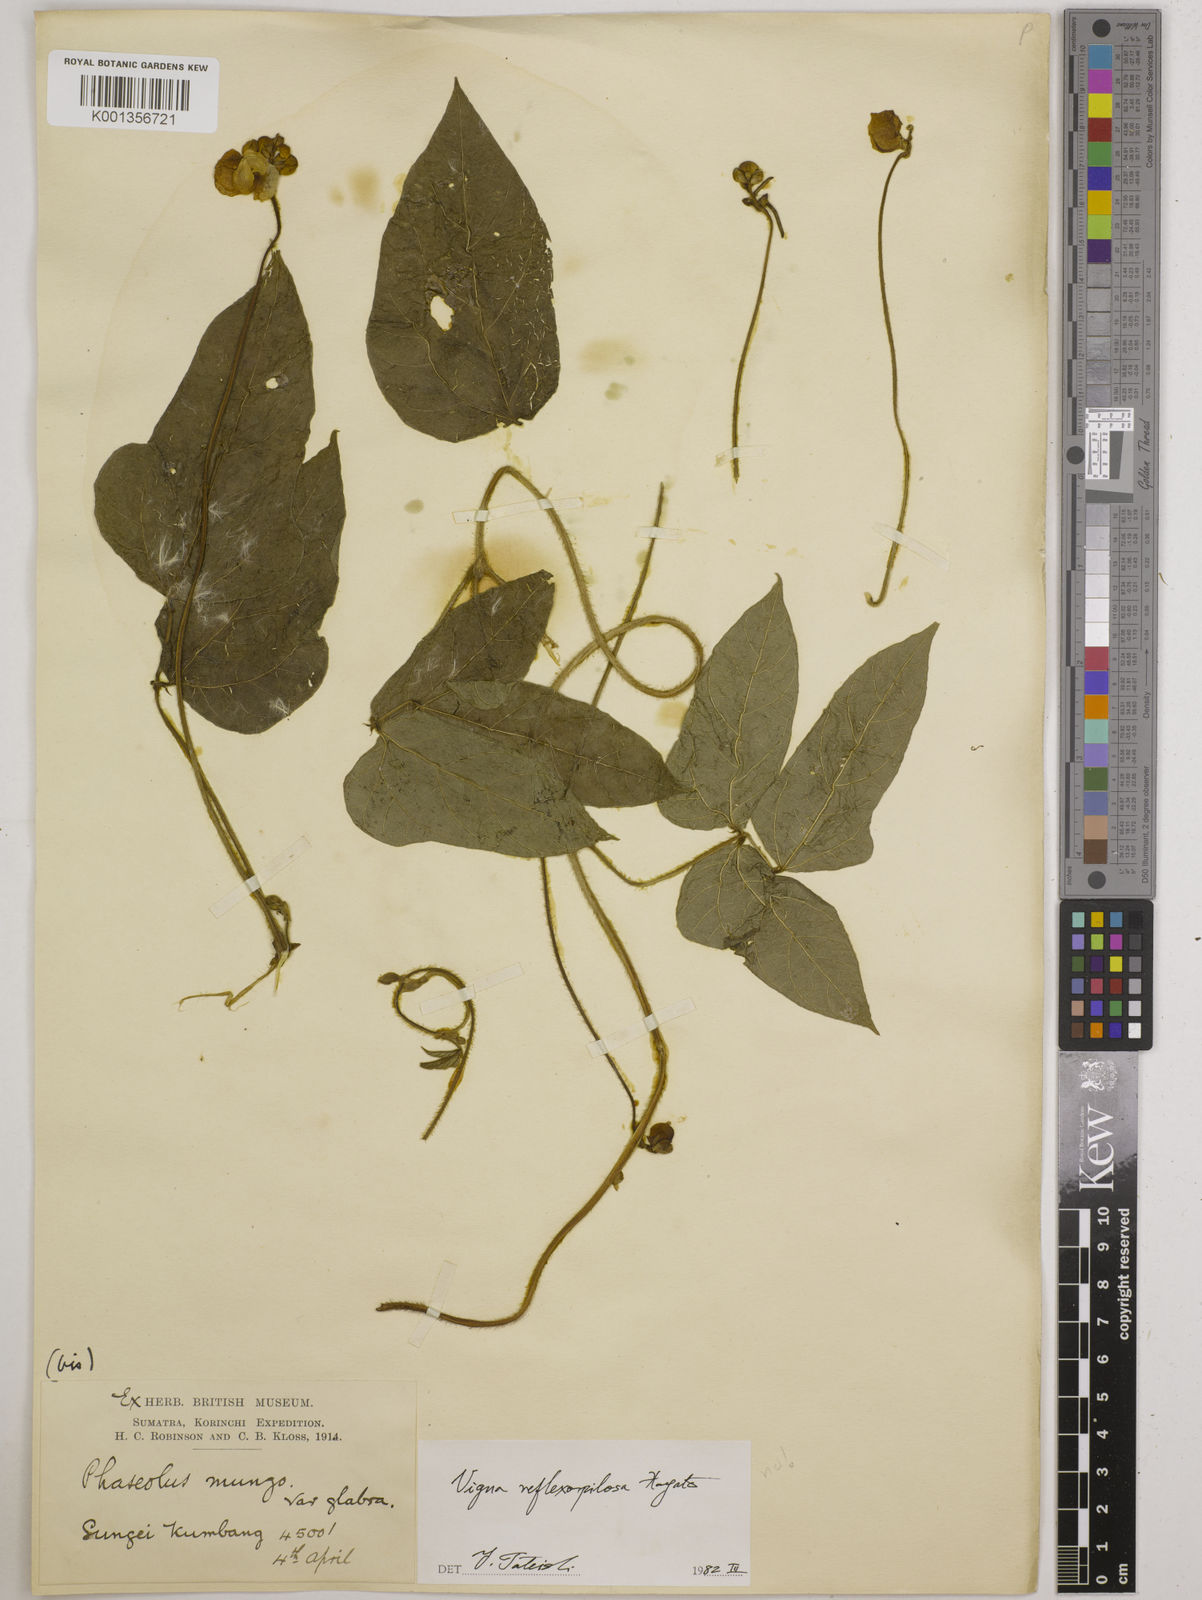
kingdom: Plantae
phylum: Tracheophyta
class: Magnoliopsida
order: Fabales
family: Fabaceae
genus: Vigna
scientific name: Vigna reflexopilosa
